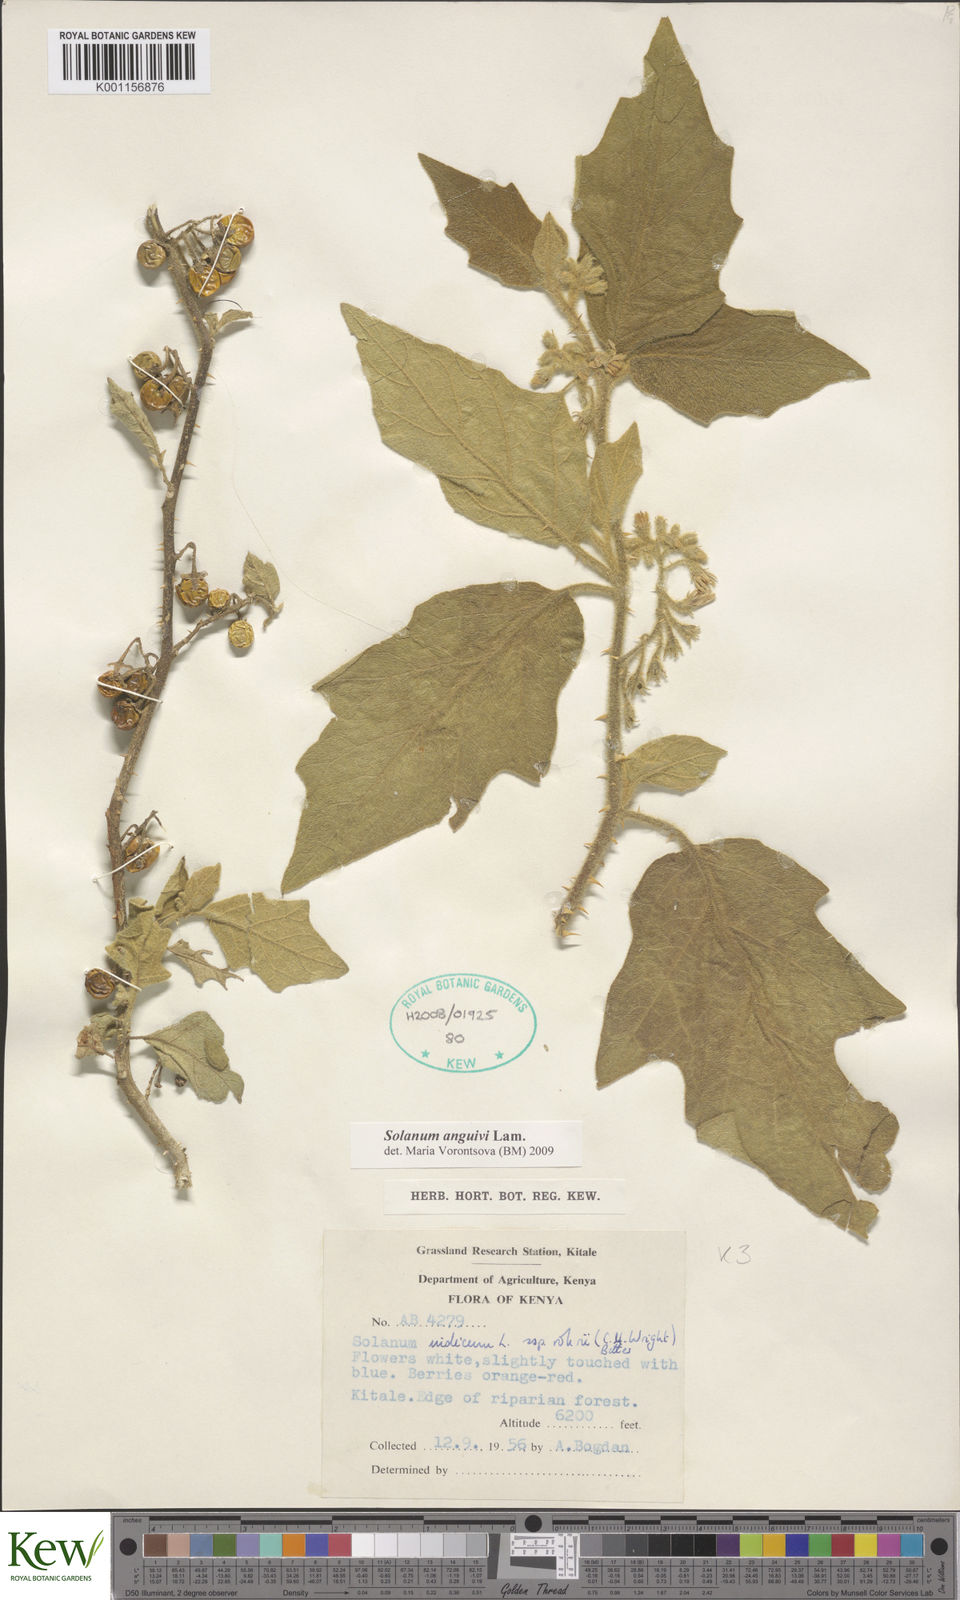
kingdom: Plantae
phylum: Tracheophyta
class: Magnoliopsida
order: Solanales
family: Solanaceae
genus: Solanum
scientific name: Solanum anguivi
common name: Forest bitterberry
